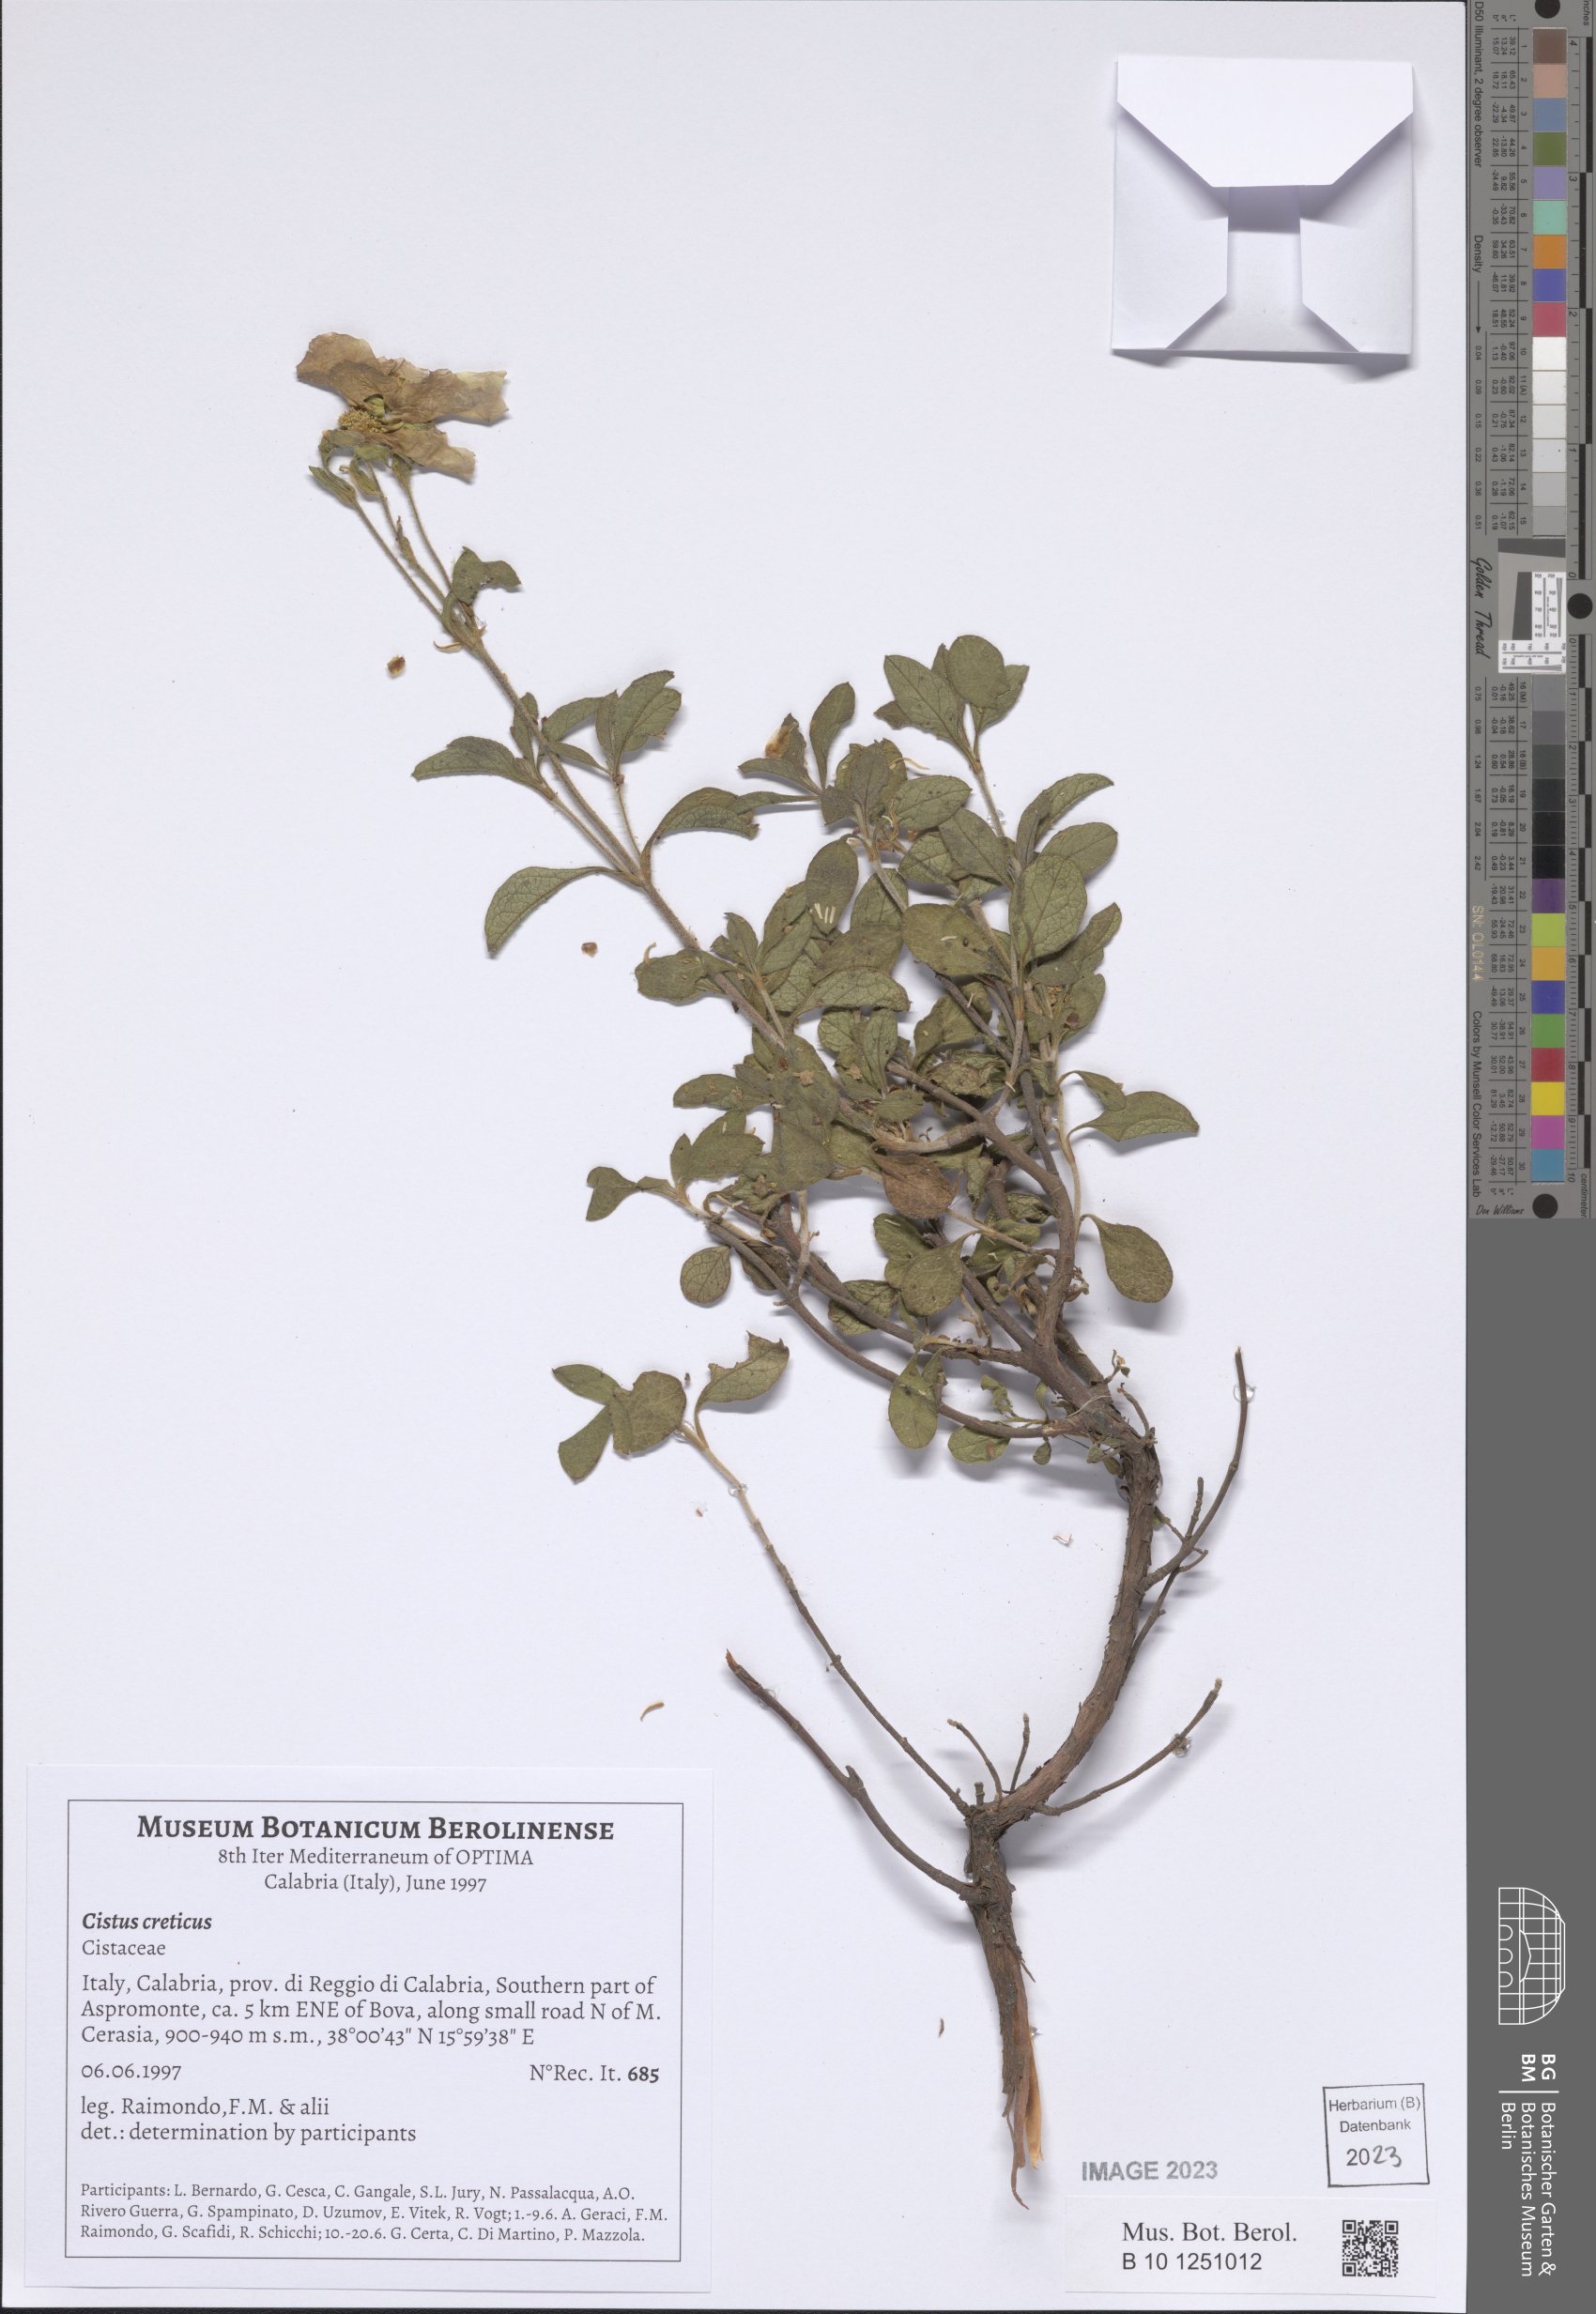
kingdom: Plantae
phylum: Tracheophyta
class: Magnoliopsida
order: Malvales
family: Cistaceae
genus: Cistus
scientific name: Cistus creticus
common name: Cretan rockrose
